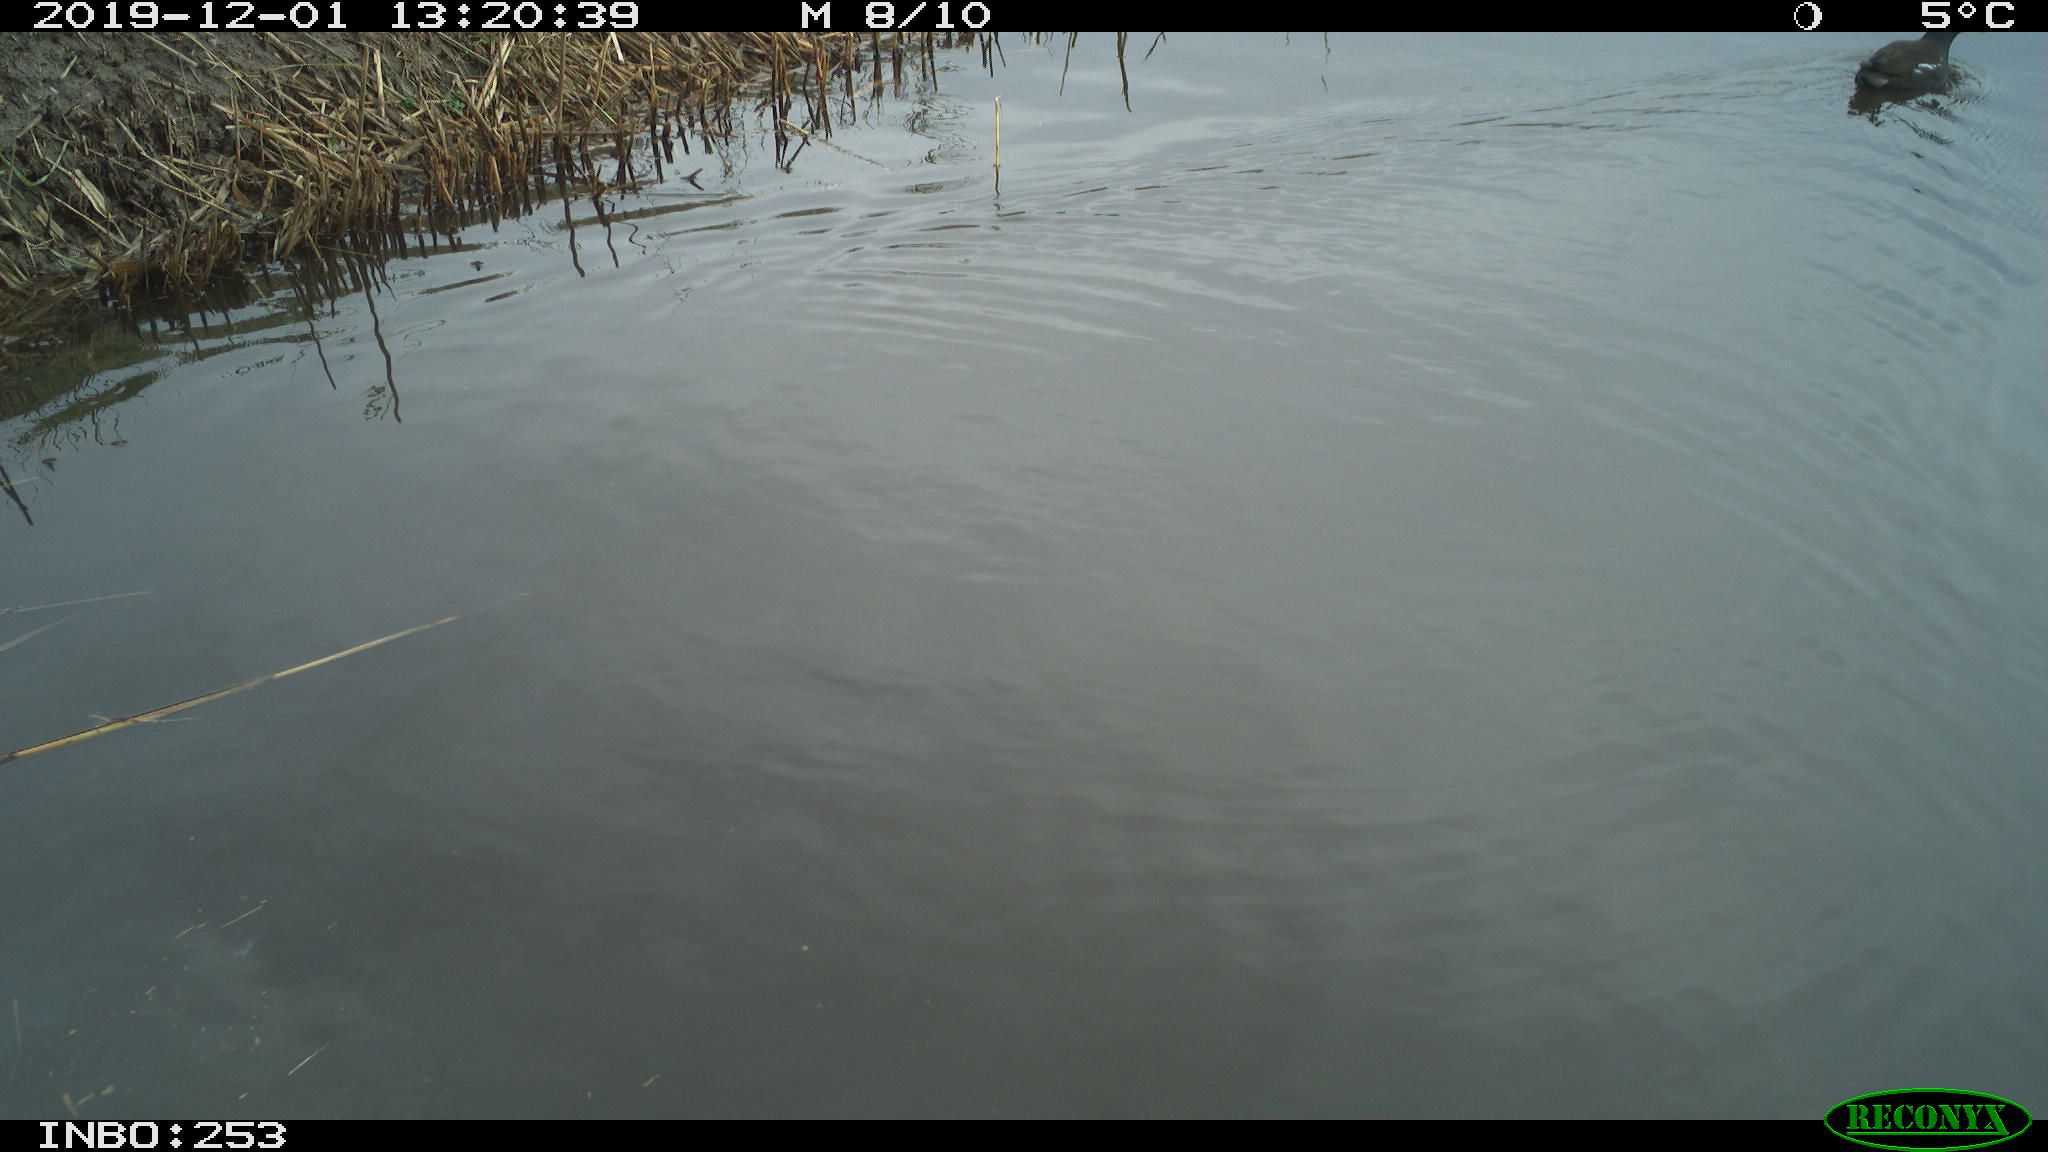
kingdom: Animalia
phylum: Chordata
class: Aves
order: Gruiformes
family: Rallidae
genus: Gallinula
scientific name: Gallinula chloropus
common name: Common moorhen
